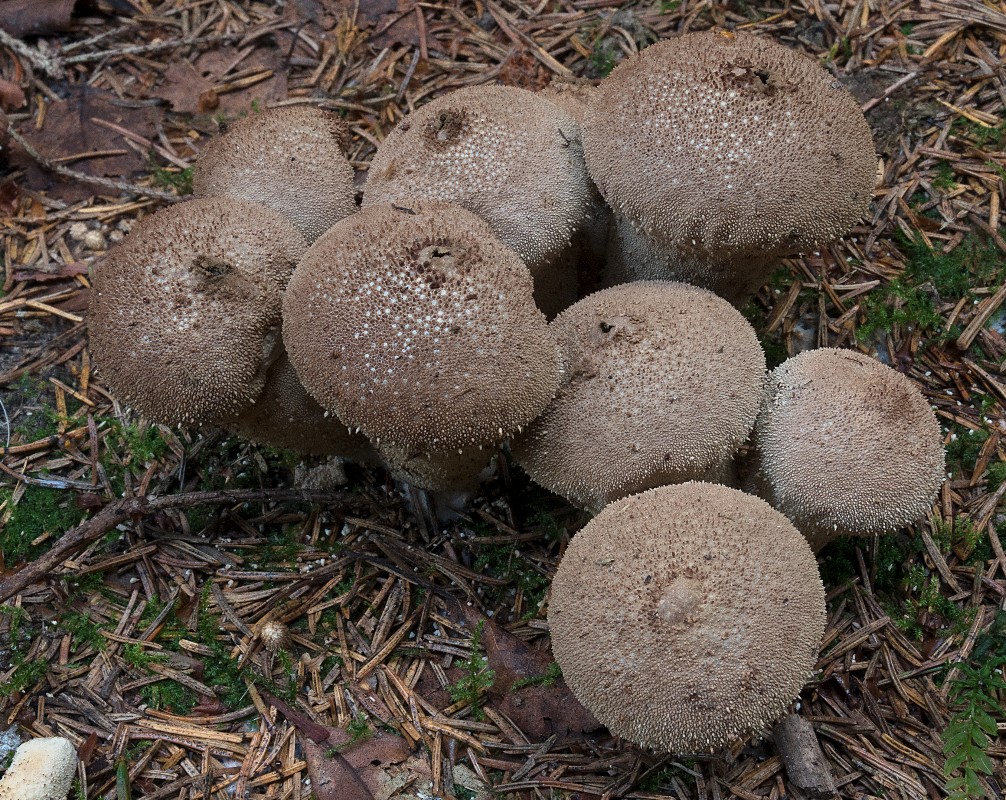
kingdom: Fungi
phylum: Basidiomycota
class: Agaricomycetes
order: Agaricales
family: Lycoperdaceae
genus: Lycoperdon
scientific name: Lycoperdon perlatum
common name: krystal-støvbold
